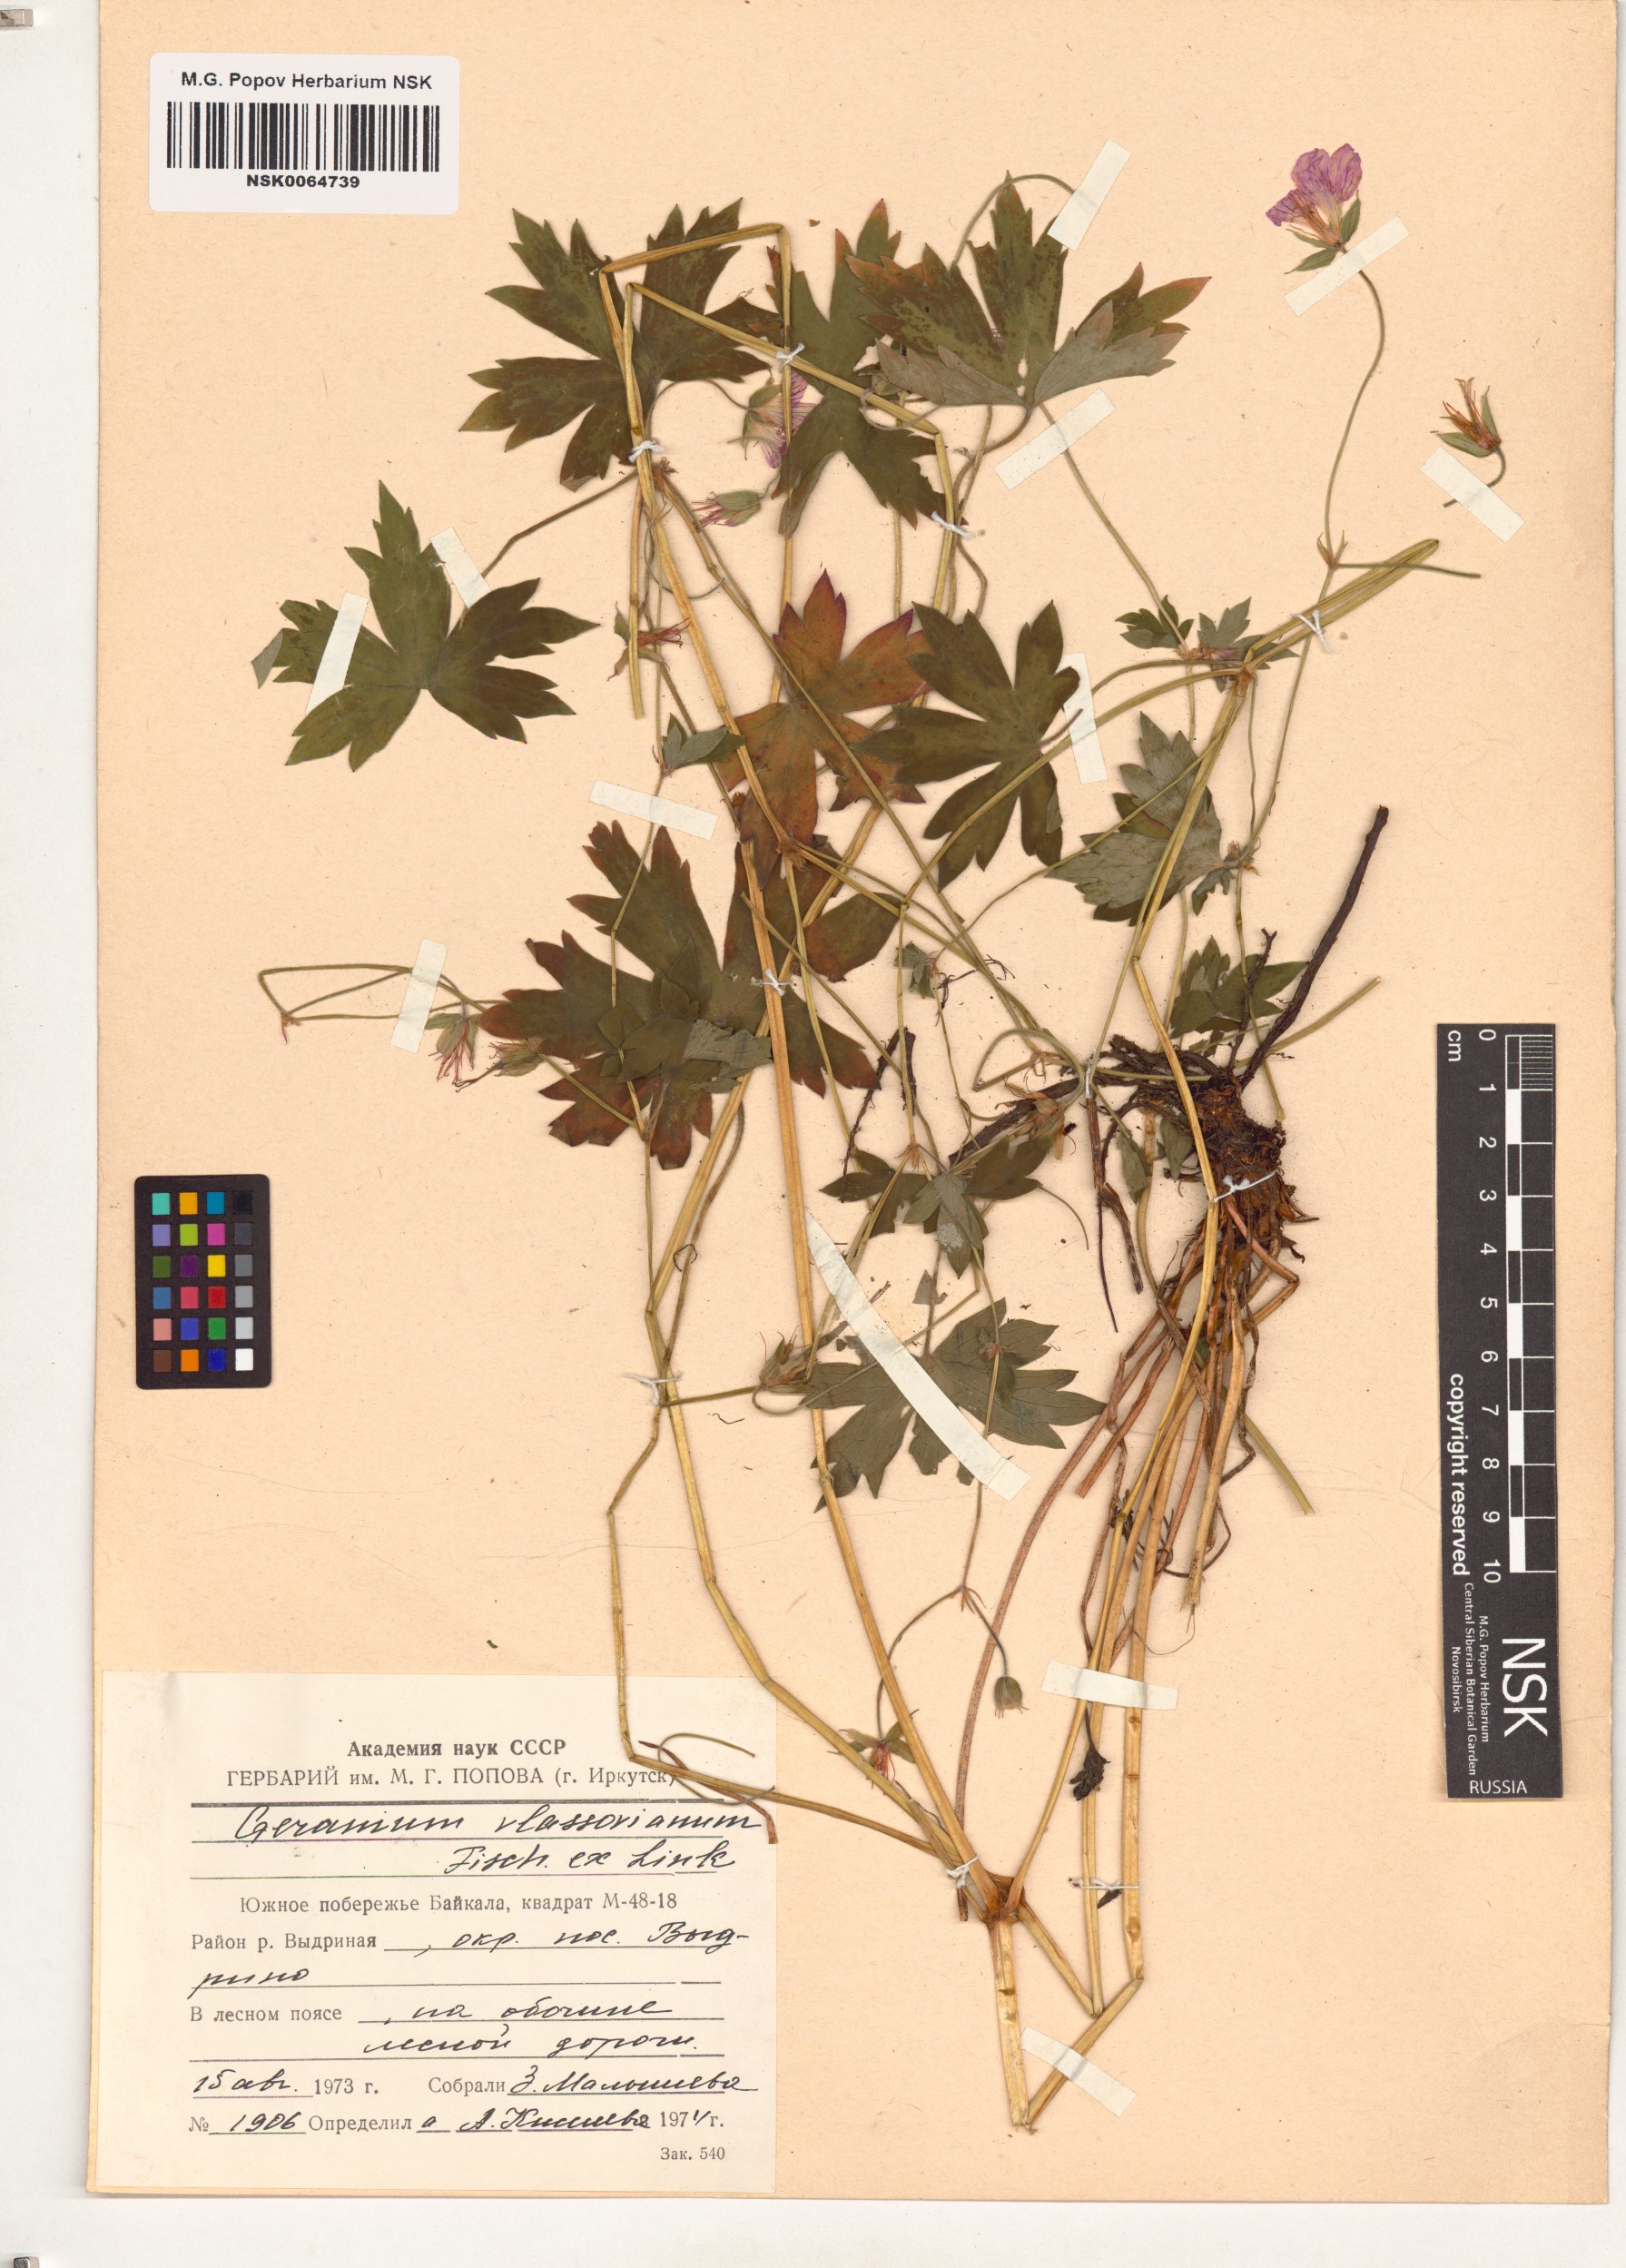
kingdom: Plantae
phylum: Tracheophyta
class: Magnoliopsida
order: Geraniales
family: Geraniaceae
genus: Geranium
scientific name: Geranium wlassovianum
